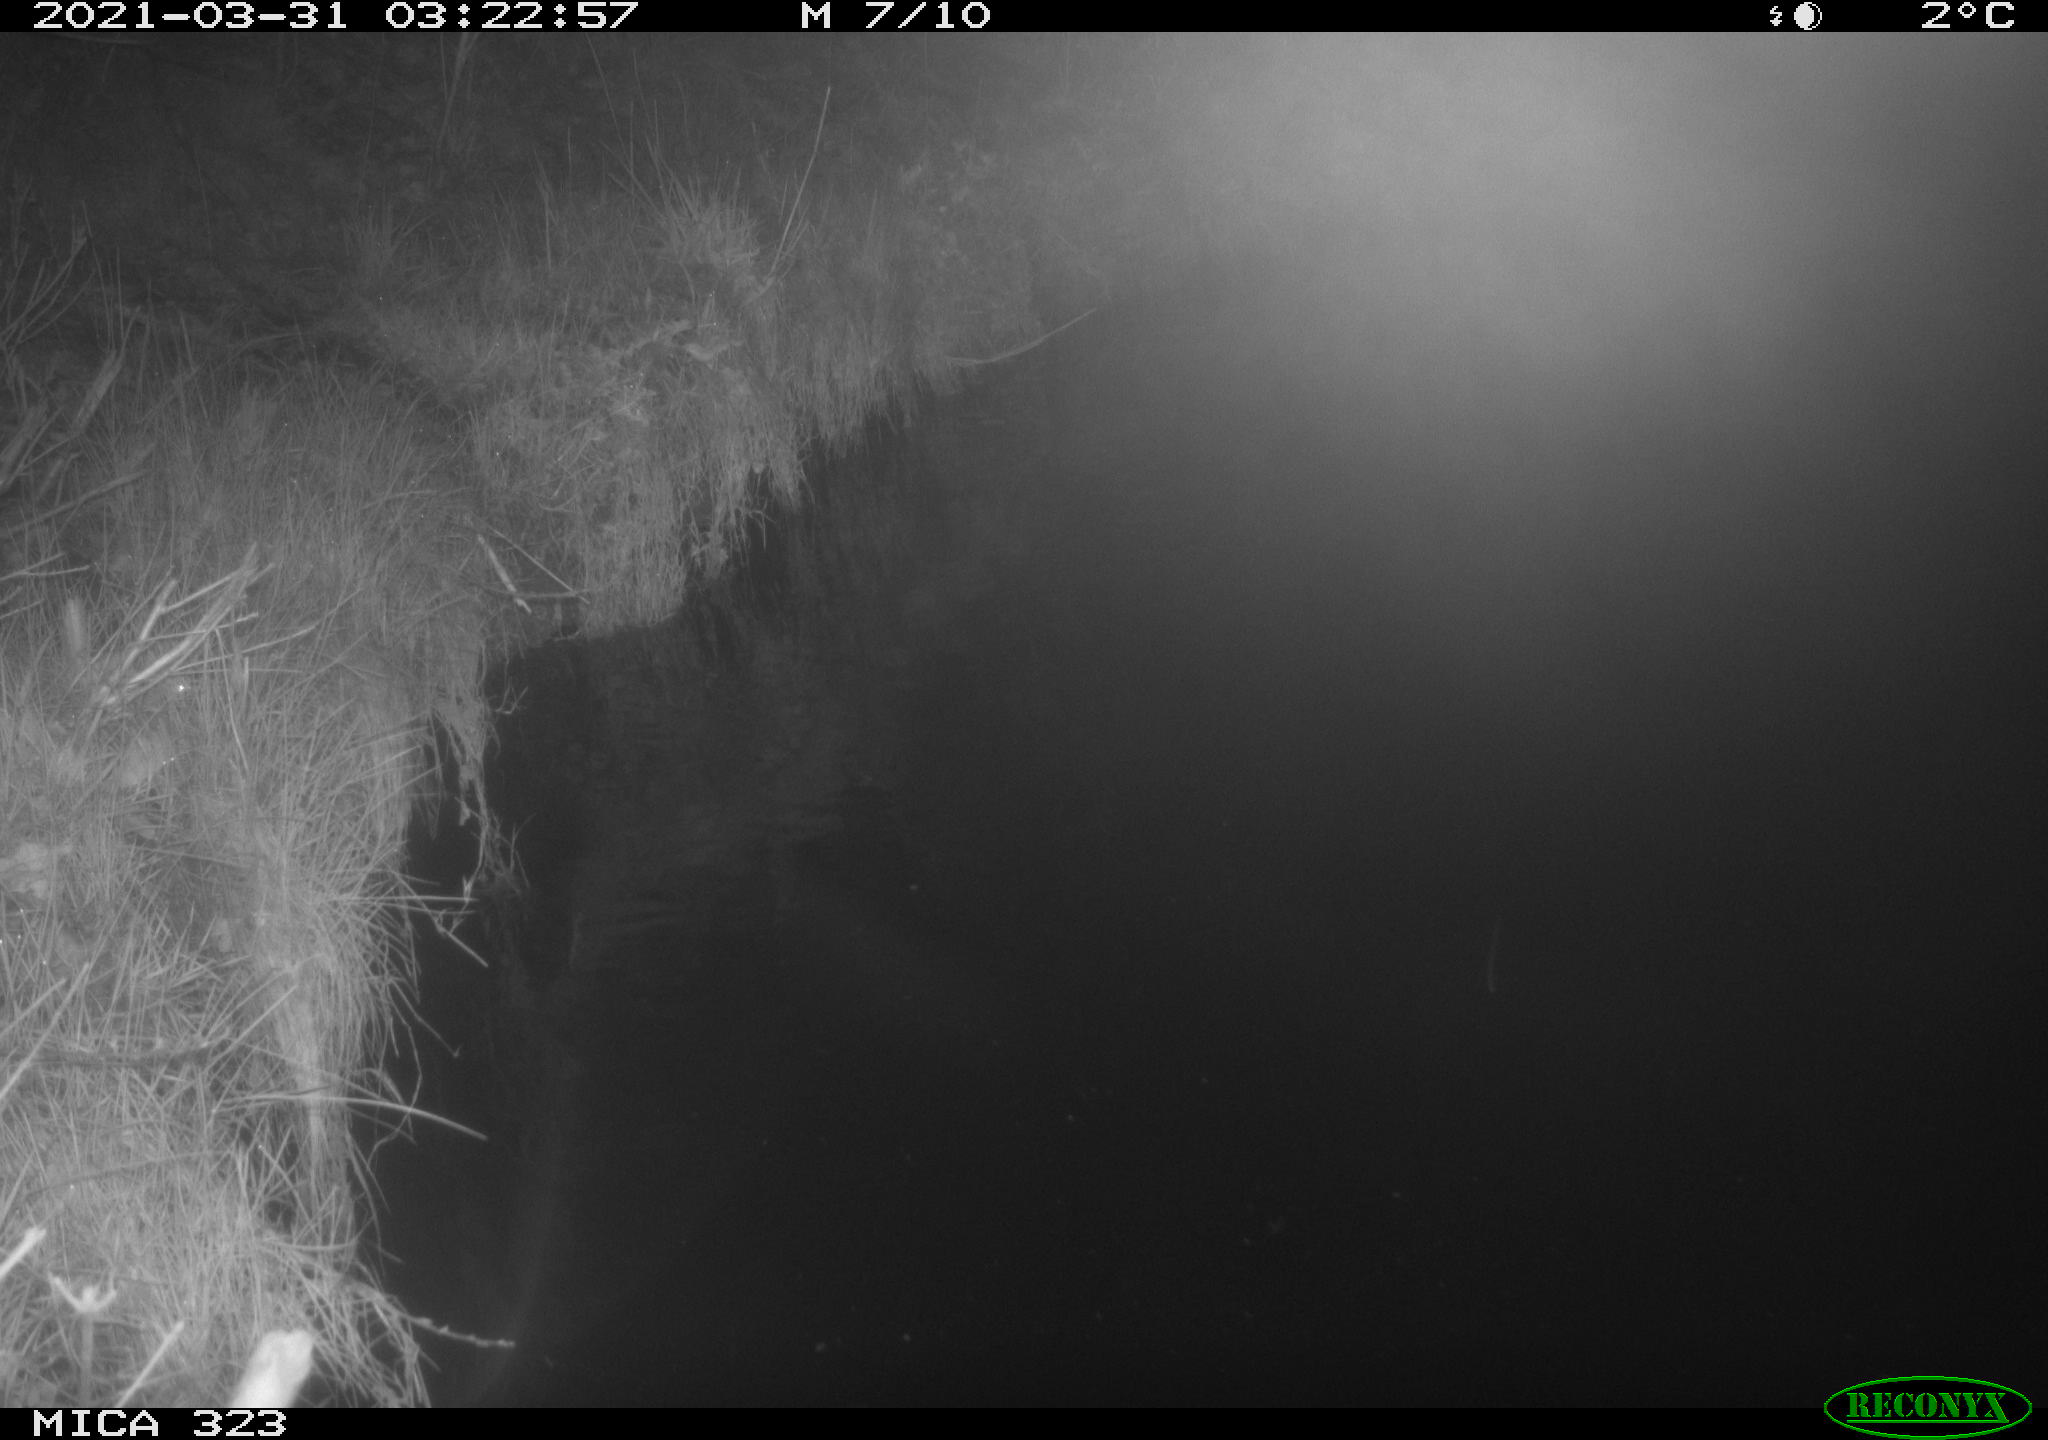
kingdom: Animalia
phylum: Chordata
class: Mammalia
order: Rodentia
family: Myocastoridae
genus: Myocastor
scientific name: Myocastor coypus
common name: Coypu
